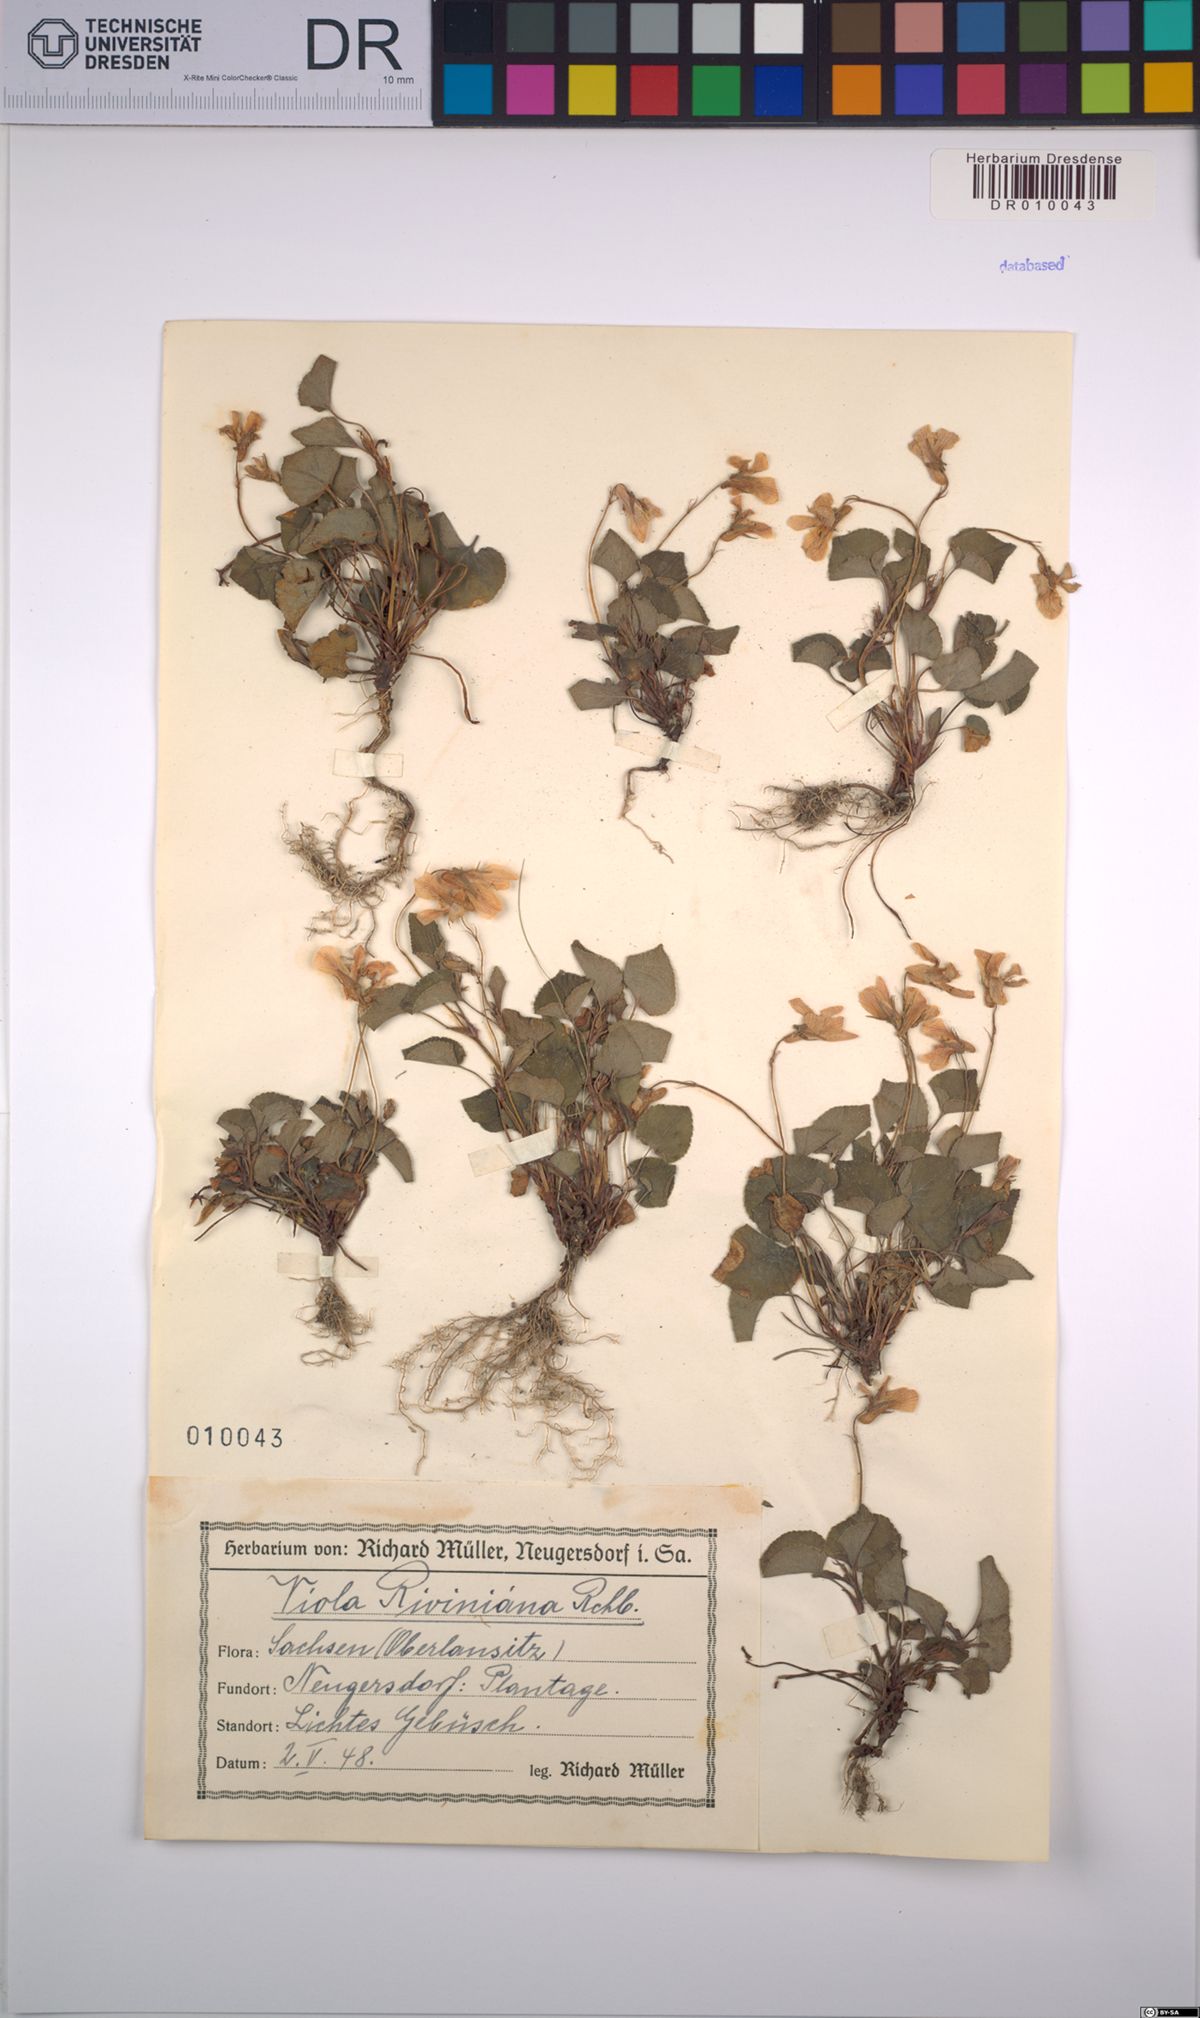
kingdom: Plantae
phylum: Tracheophyta
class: Magnoliopsida
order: Malpighiales
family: Violaceae
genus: Viola
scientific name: Viola riviniana
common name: Common dog-violet
